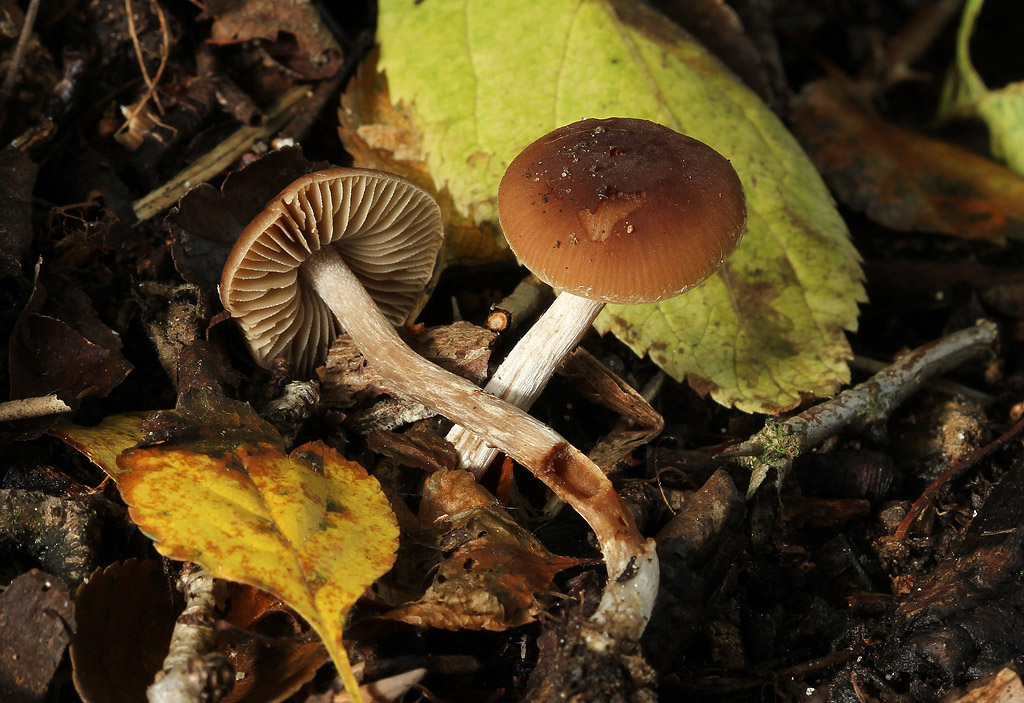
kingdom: Fungi
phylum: Basidiomycota
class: Agaricomycetes
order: Agaricales
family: Hymenogastraceae
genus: Naucoria
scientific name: Naucoria bohemica
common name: birke-knaphat
